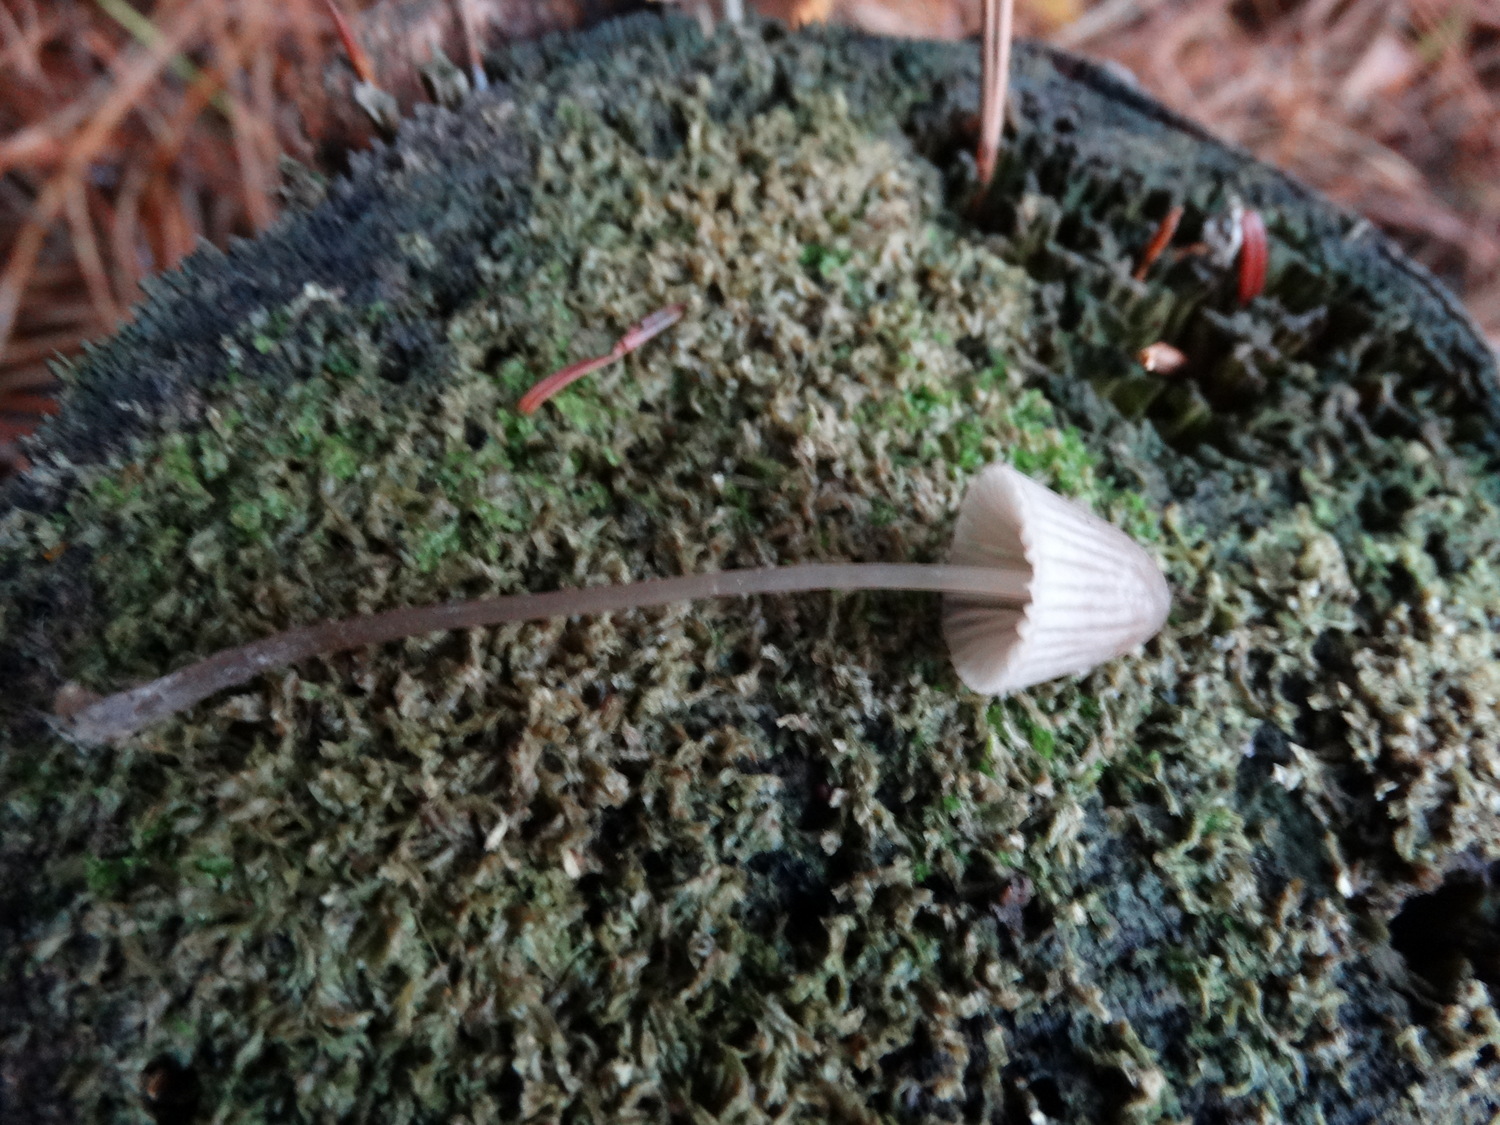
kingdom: Fungi
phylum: Basidiomycota
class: Agaricomycetes
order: Agaricales
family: Mycenaceae
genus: Mycena
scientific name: Mycena capillaripes
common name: nåle-huesvamp
